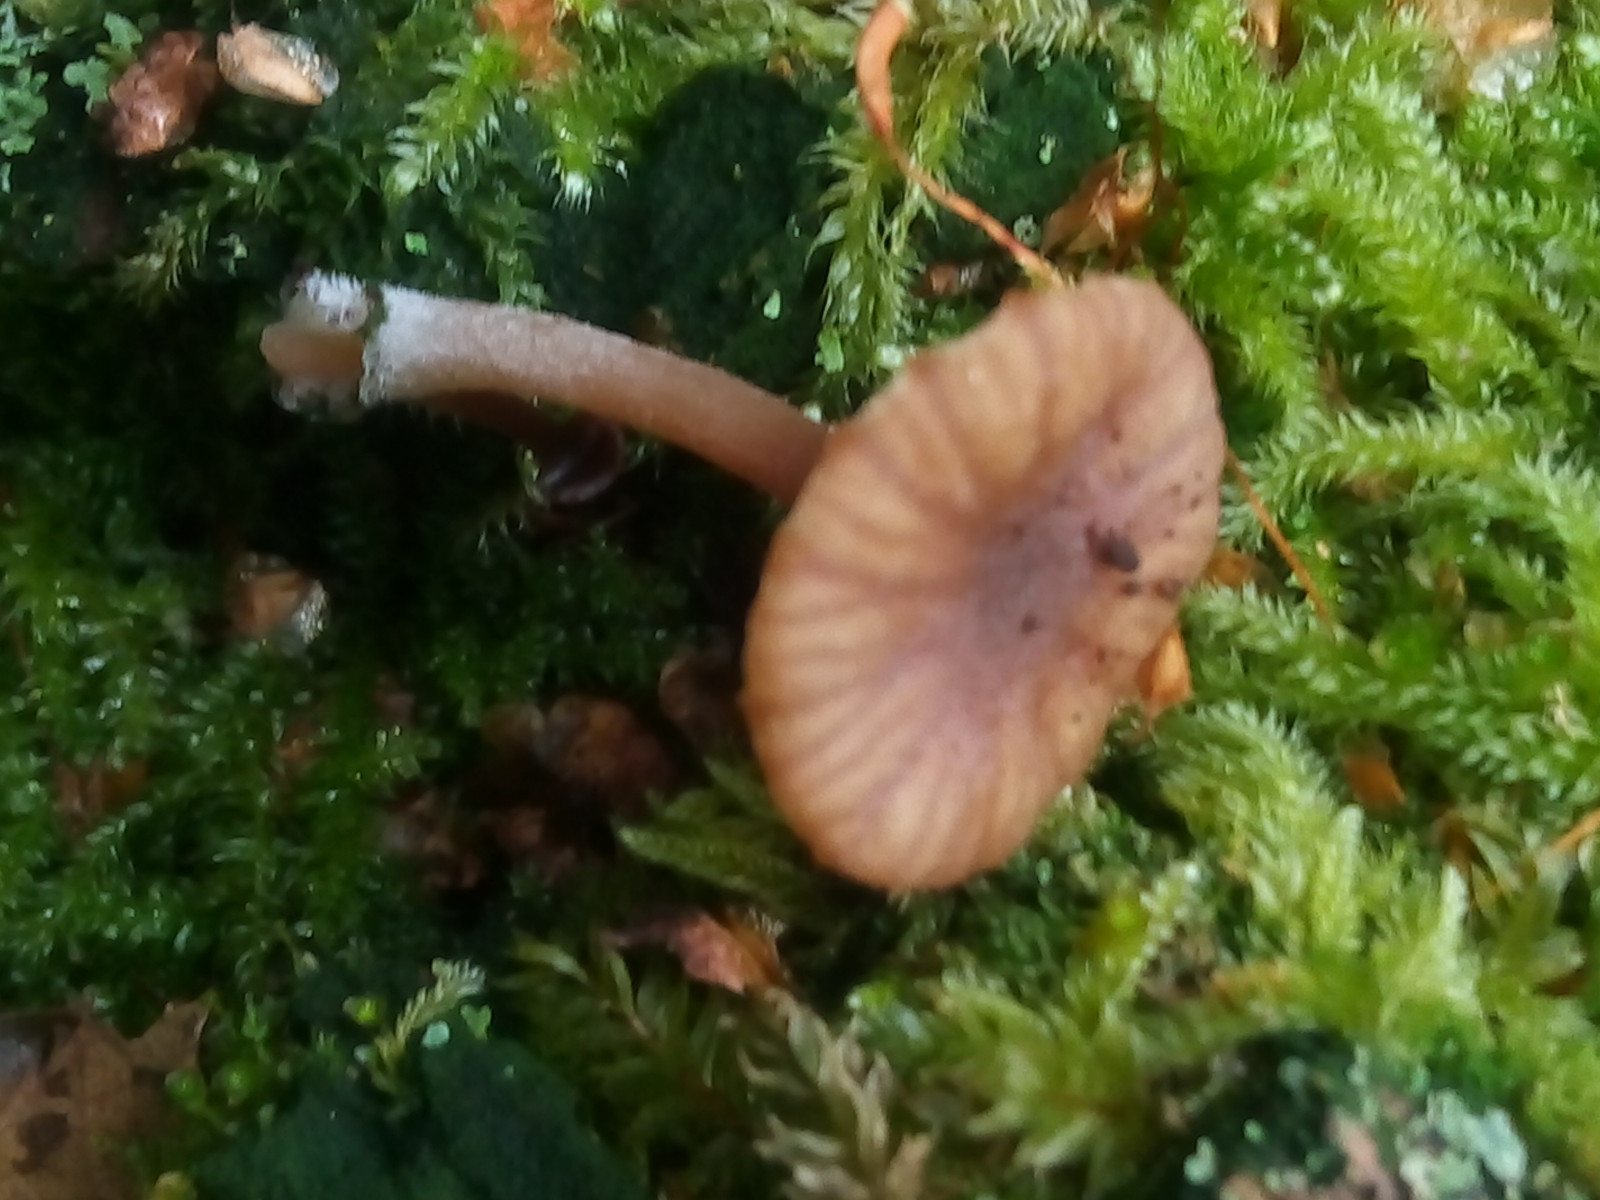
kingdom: Fungi
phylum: Basidiomycota
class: Agaricomycetes
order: Agaricales
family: Hygrophoraceae
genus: Lichenomphalia
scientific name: Lichenomphalia umbellifera
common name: tørve-lavhat
